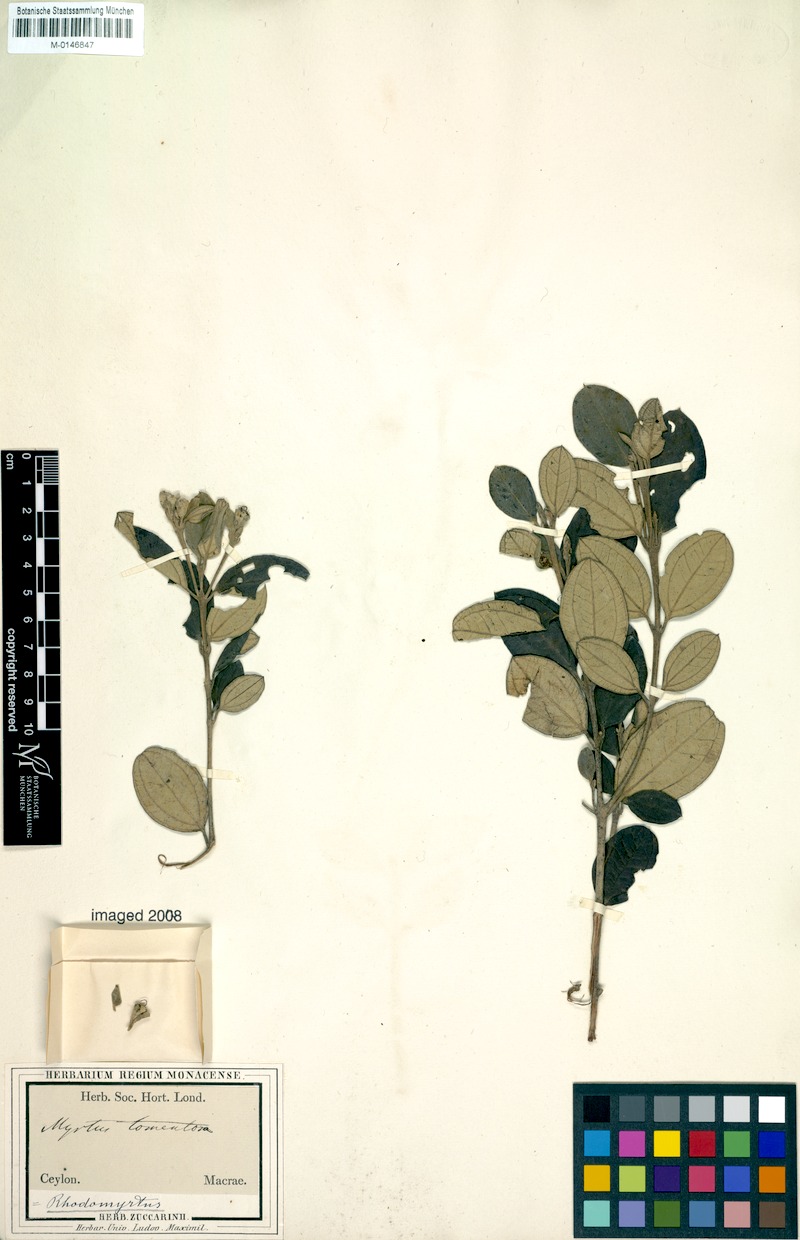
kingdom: Plantae
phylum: Tracheophyta
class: Magnoliopsida
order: Myrtales
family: Myrtaceae
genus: Rhodomyrtus
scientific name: Rhodomyrtus tomentosa
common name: Rose myrtle
